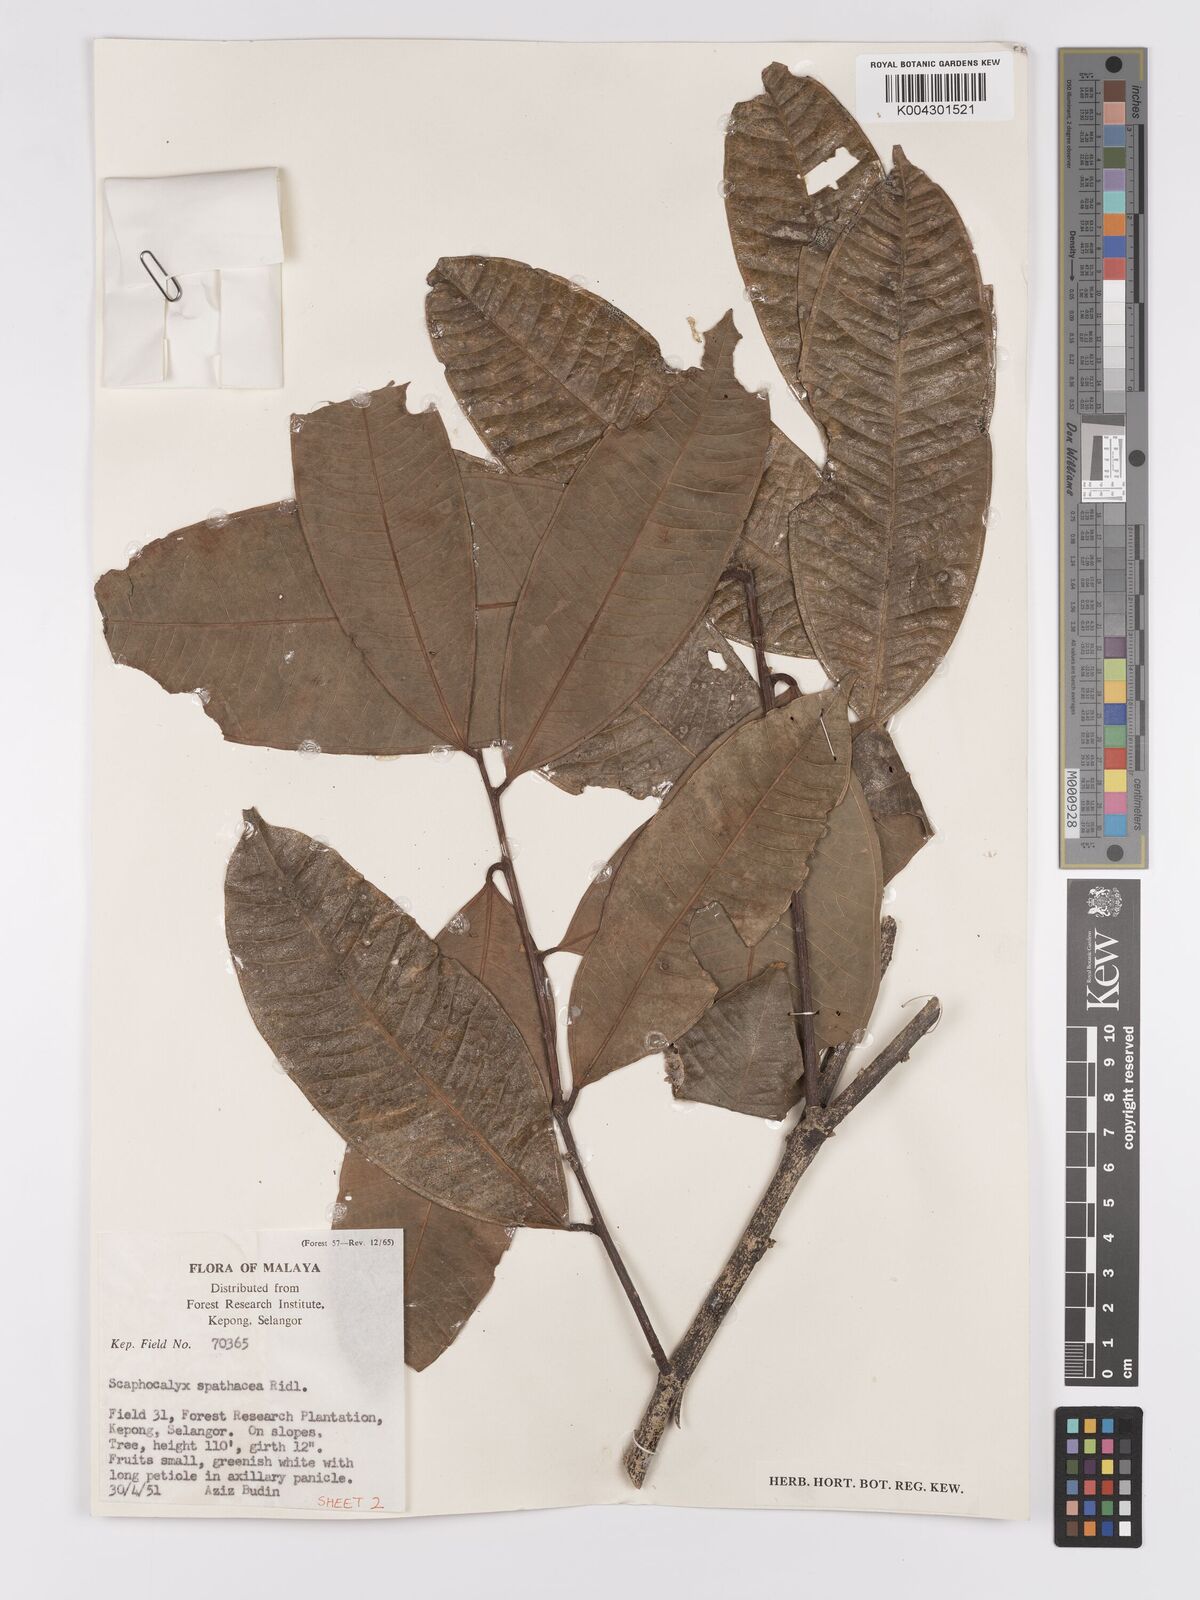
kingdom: Plantae
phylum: Tracheophyta
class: Magnoliopsida
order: Malpighiales
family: Achariaceae
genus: Scaphocalyx
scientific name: Scaphocalyx spathacea
